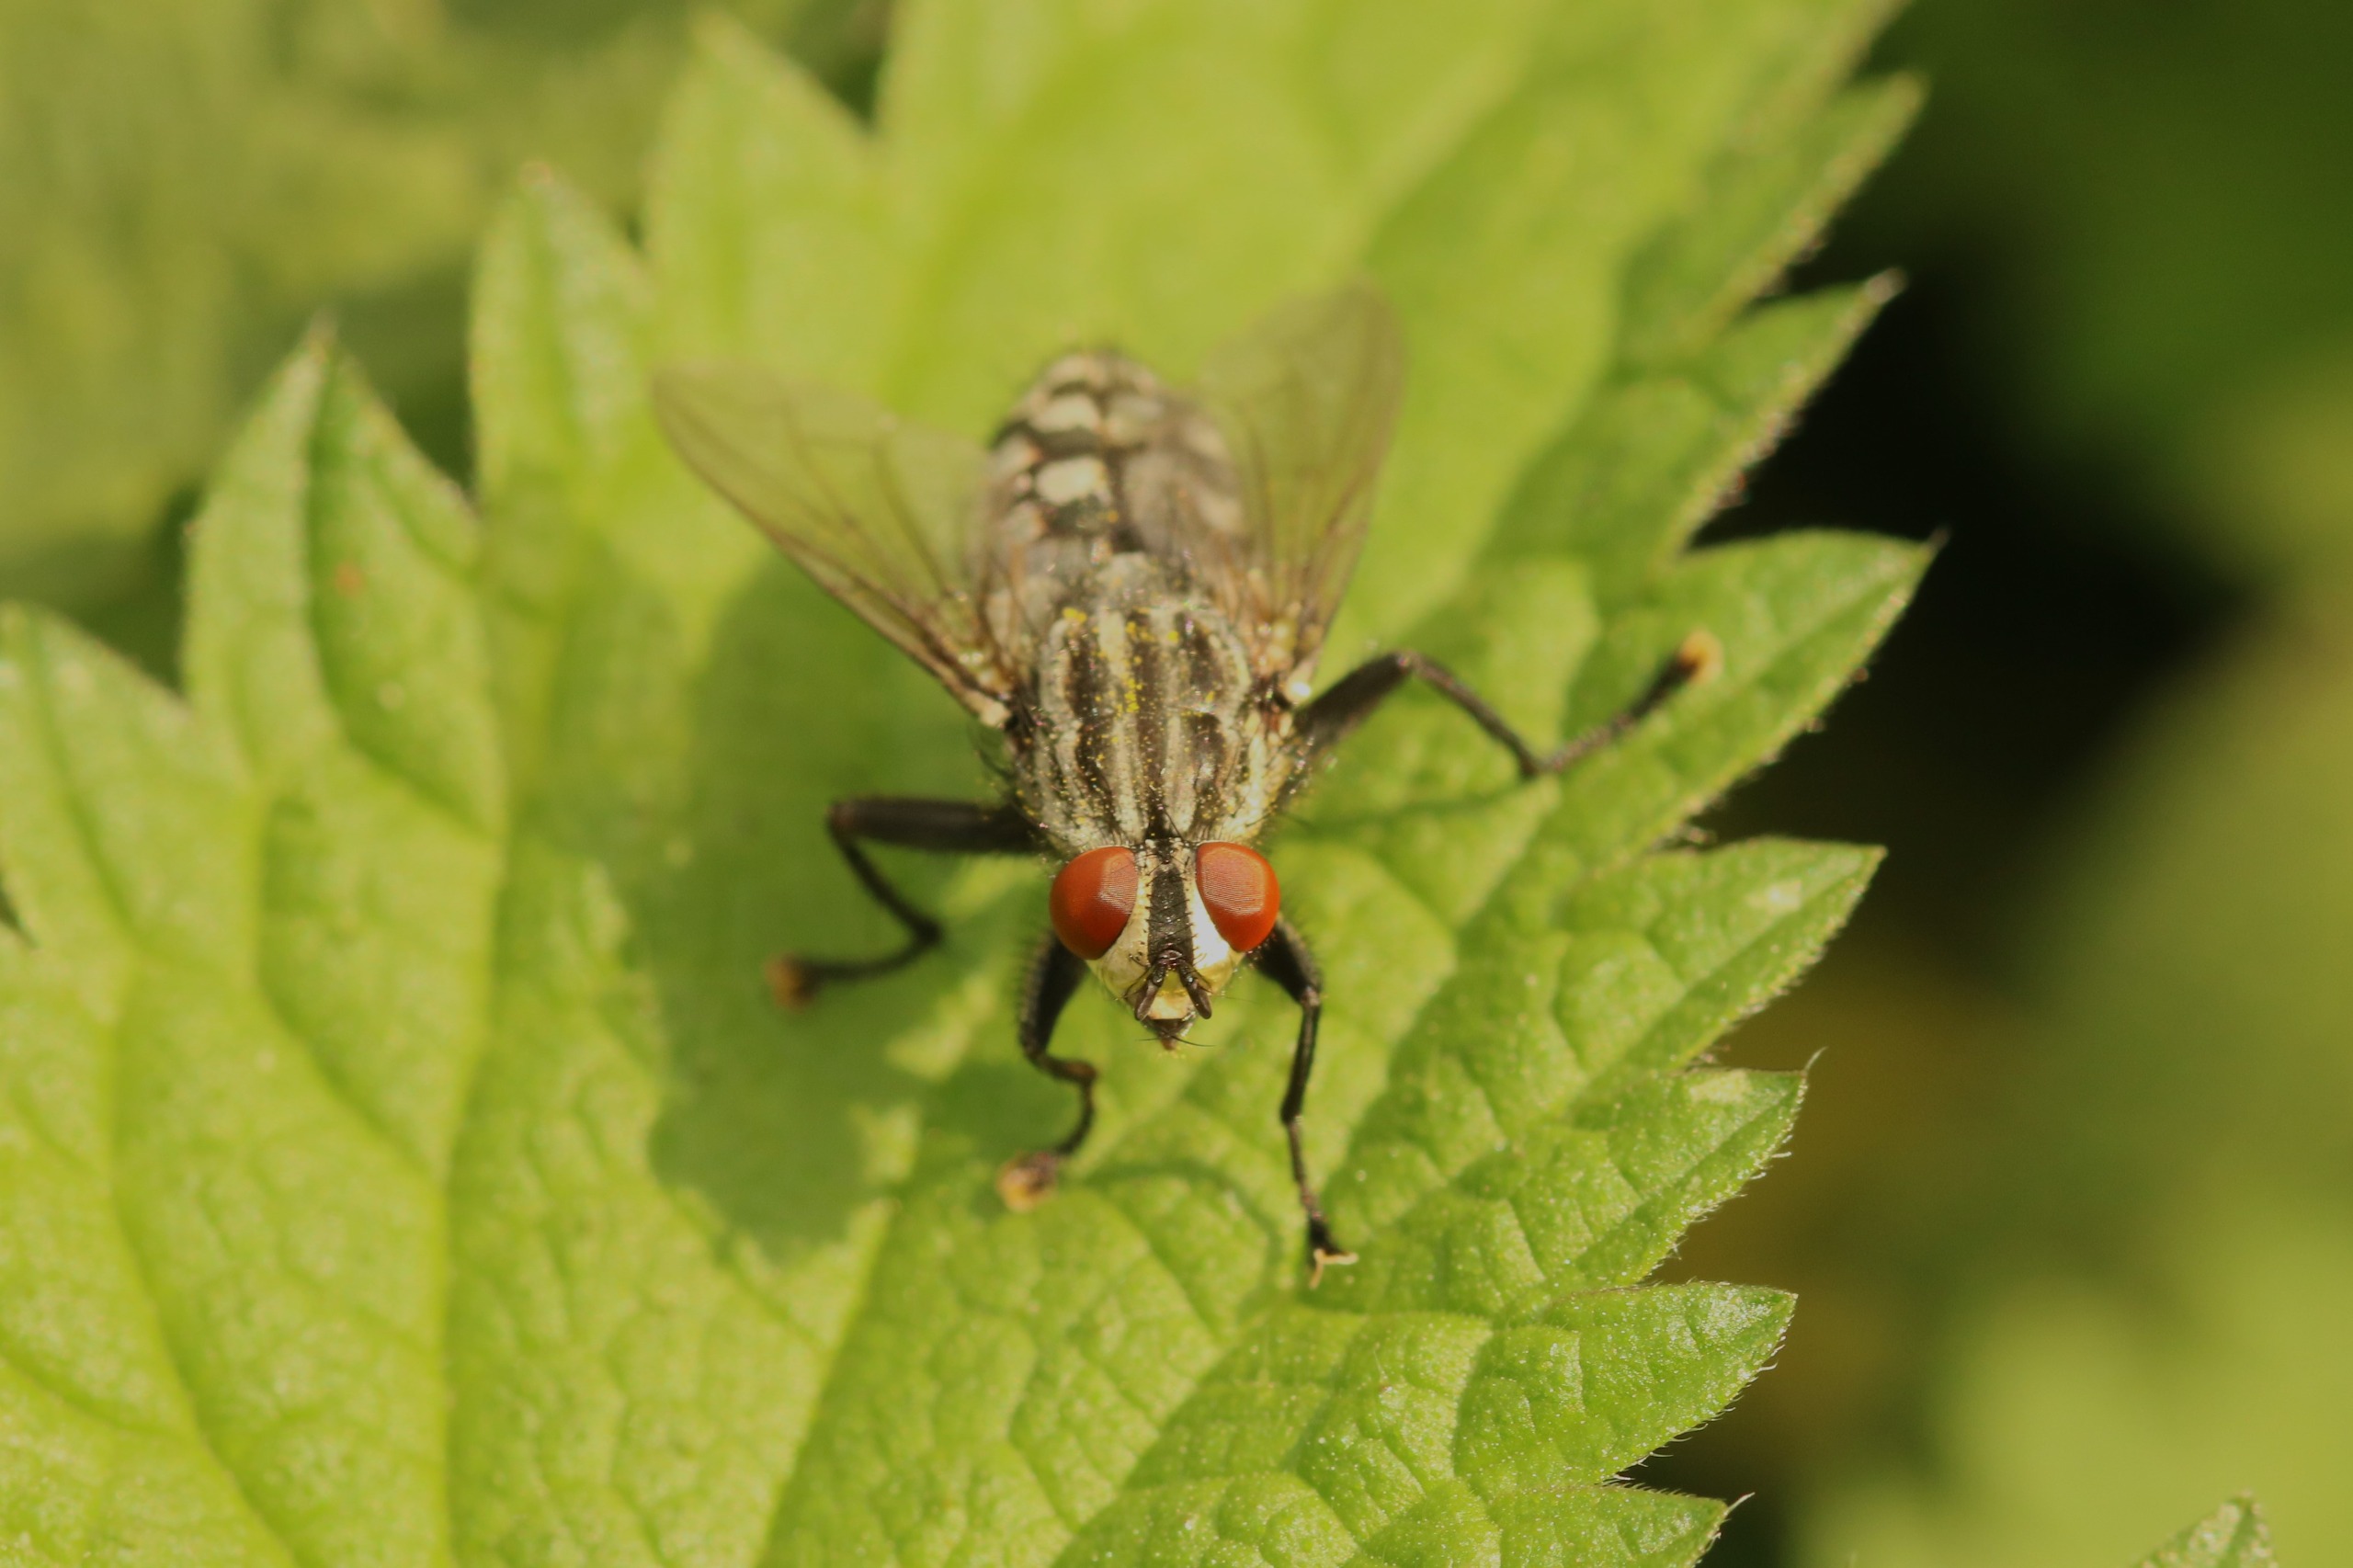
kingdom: Animalia
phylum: Arthropoda
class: Insecta
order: Diptera
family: Sarcophagidae
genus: Sarcophaga
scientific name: Sarcophaga
